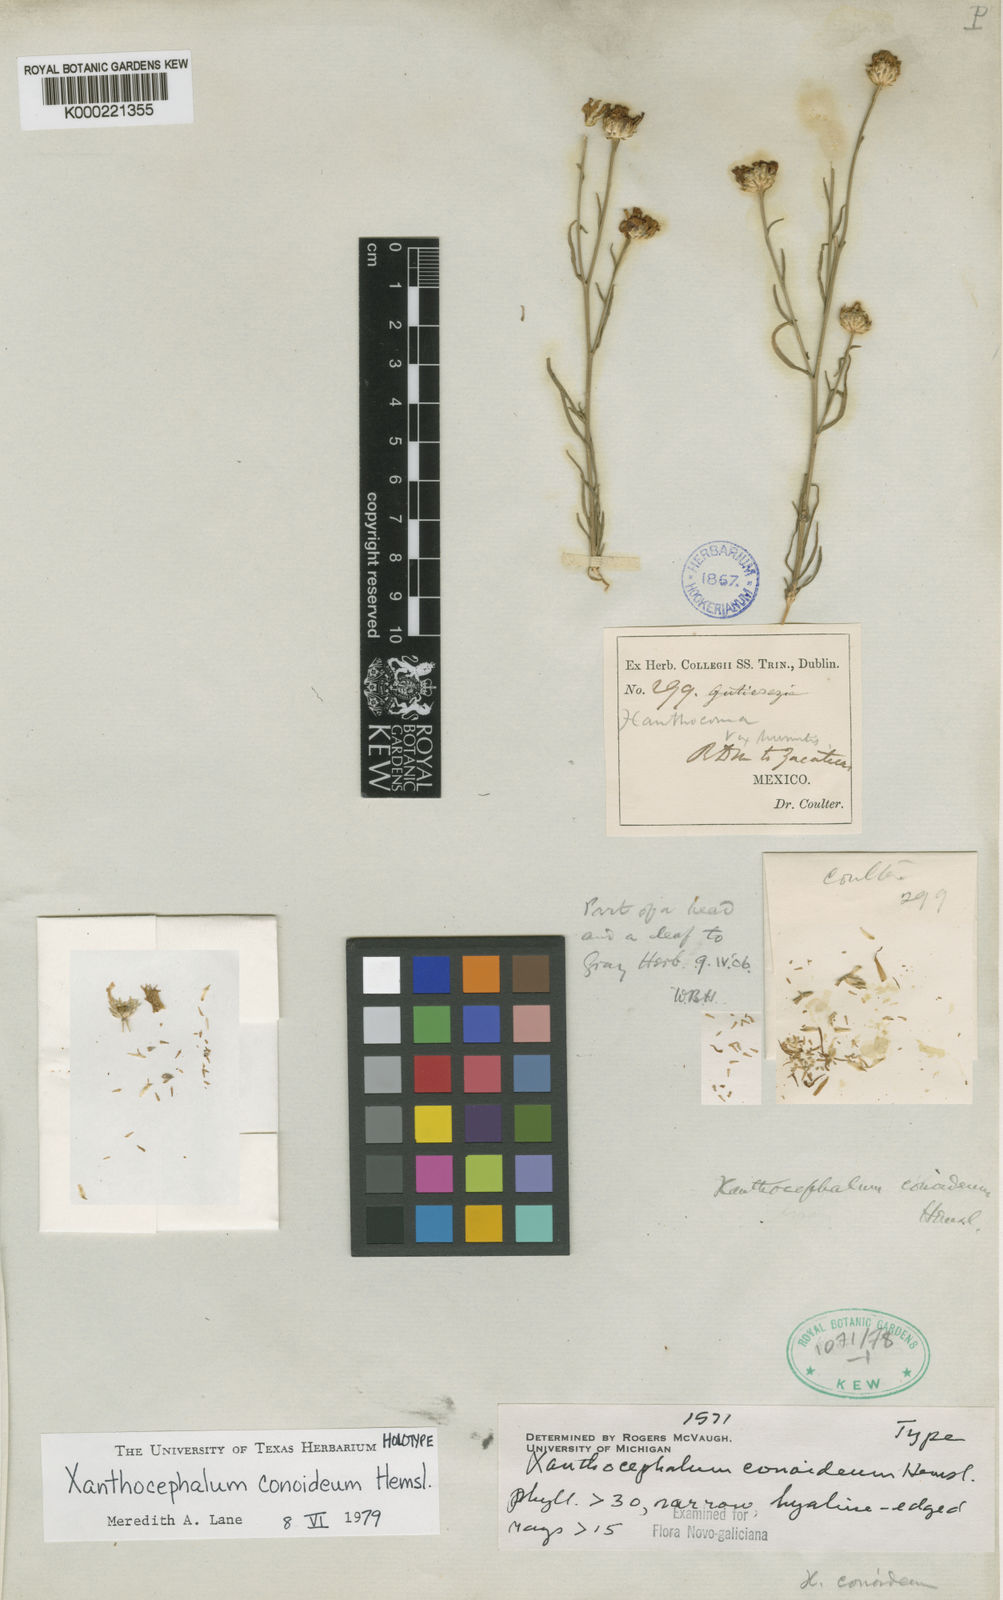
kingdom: Plantae
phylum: Tracheophyta
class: Magnoliopsida
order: Asterales
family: Asteraceae
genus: Gutierrezia
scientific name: Gutierrezia conoidea
